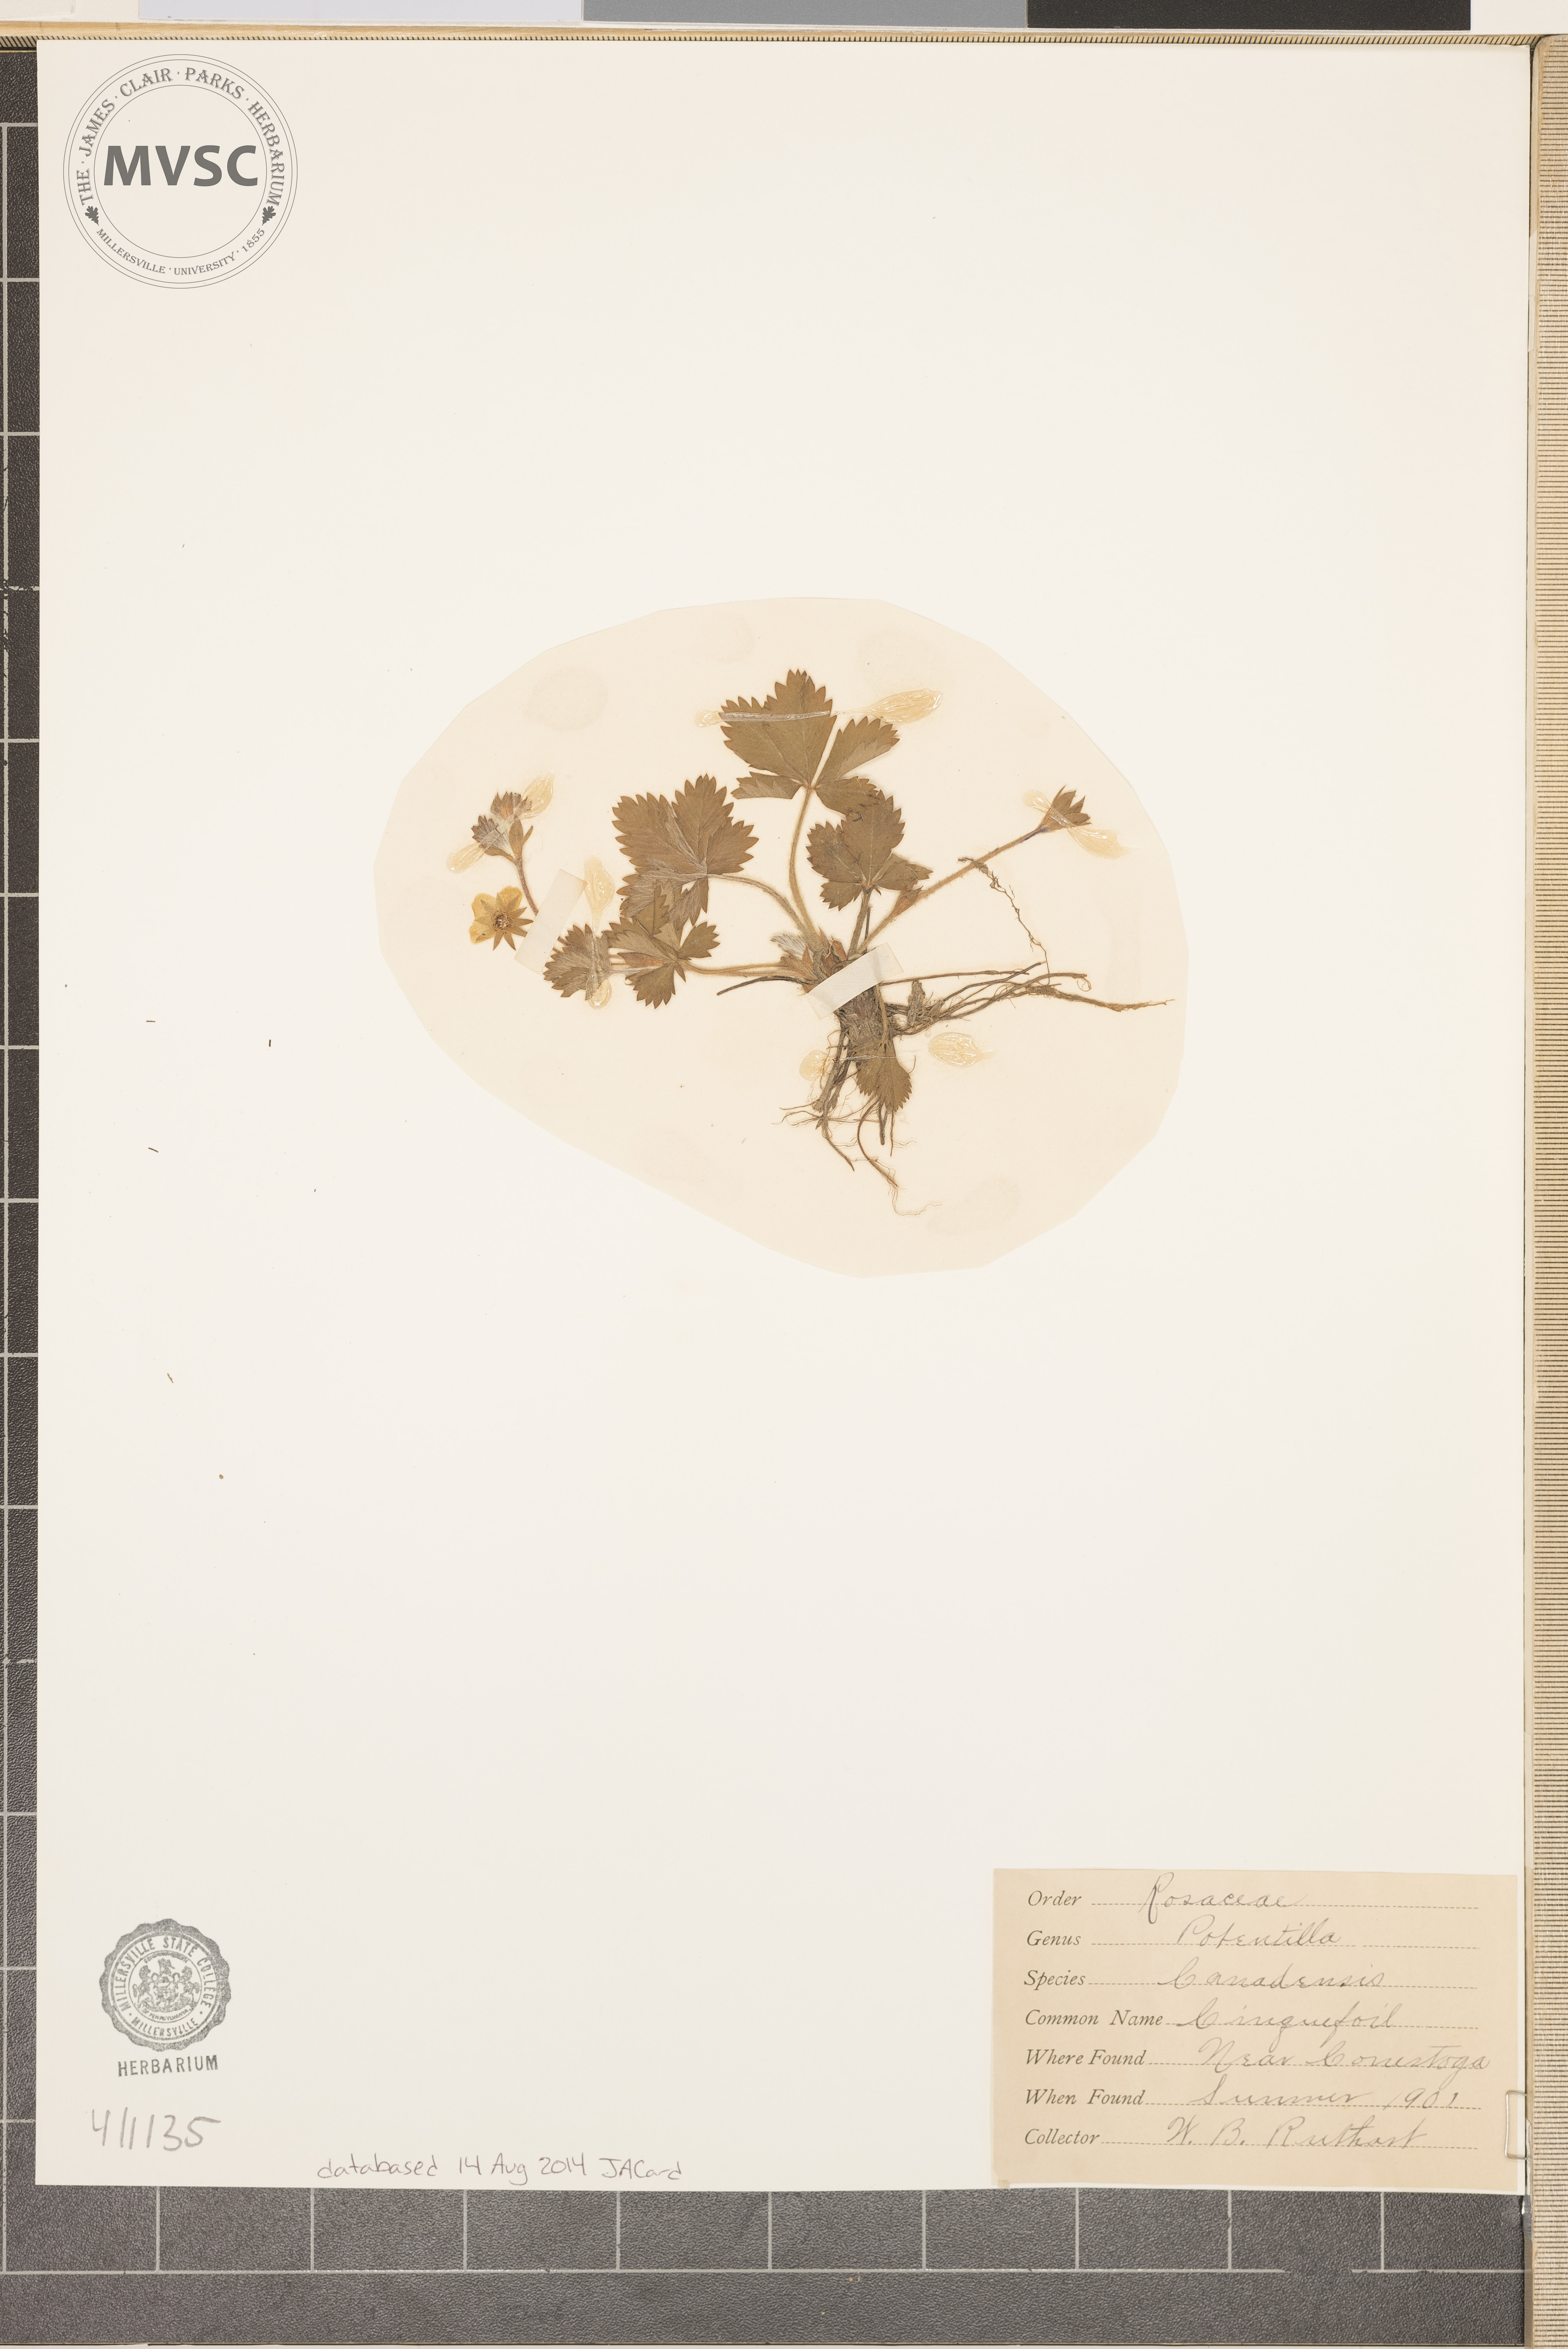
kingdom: Plantae
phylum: Tracheophyta
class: Magnoliopsida
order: Rosales
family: Rosaceae
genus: Potentilla
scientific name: Potentilla canadensis
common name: Canada cinquefoil
